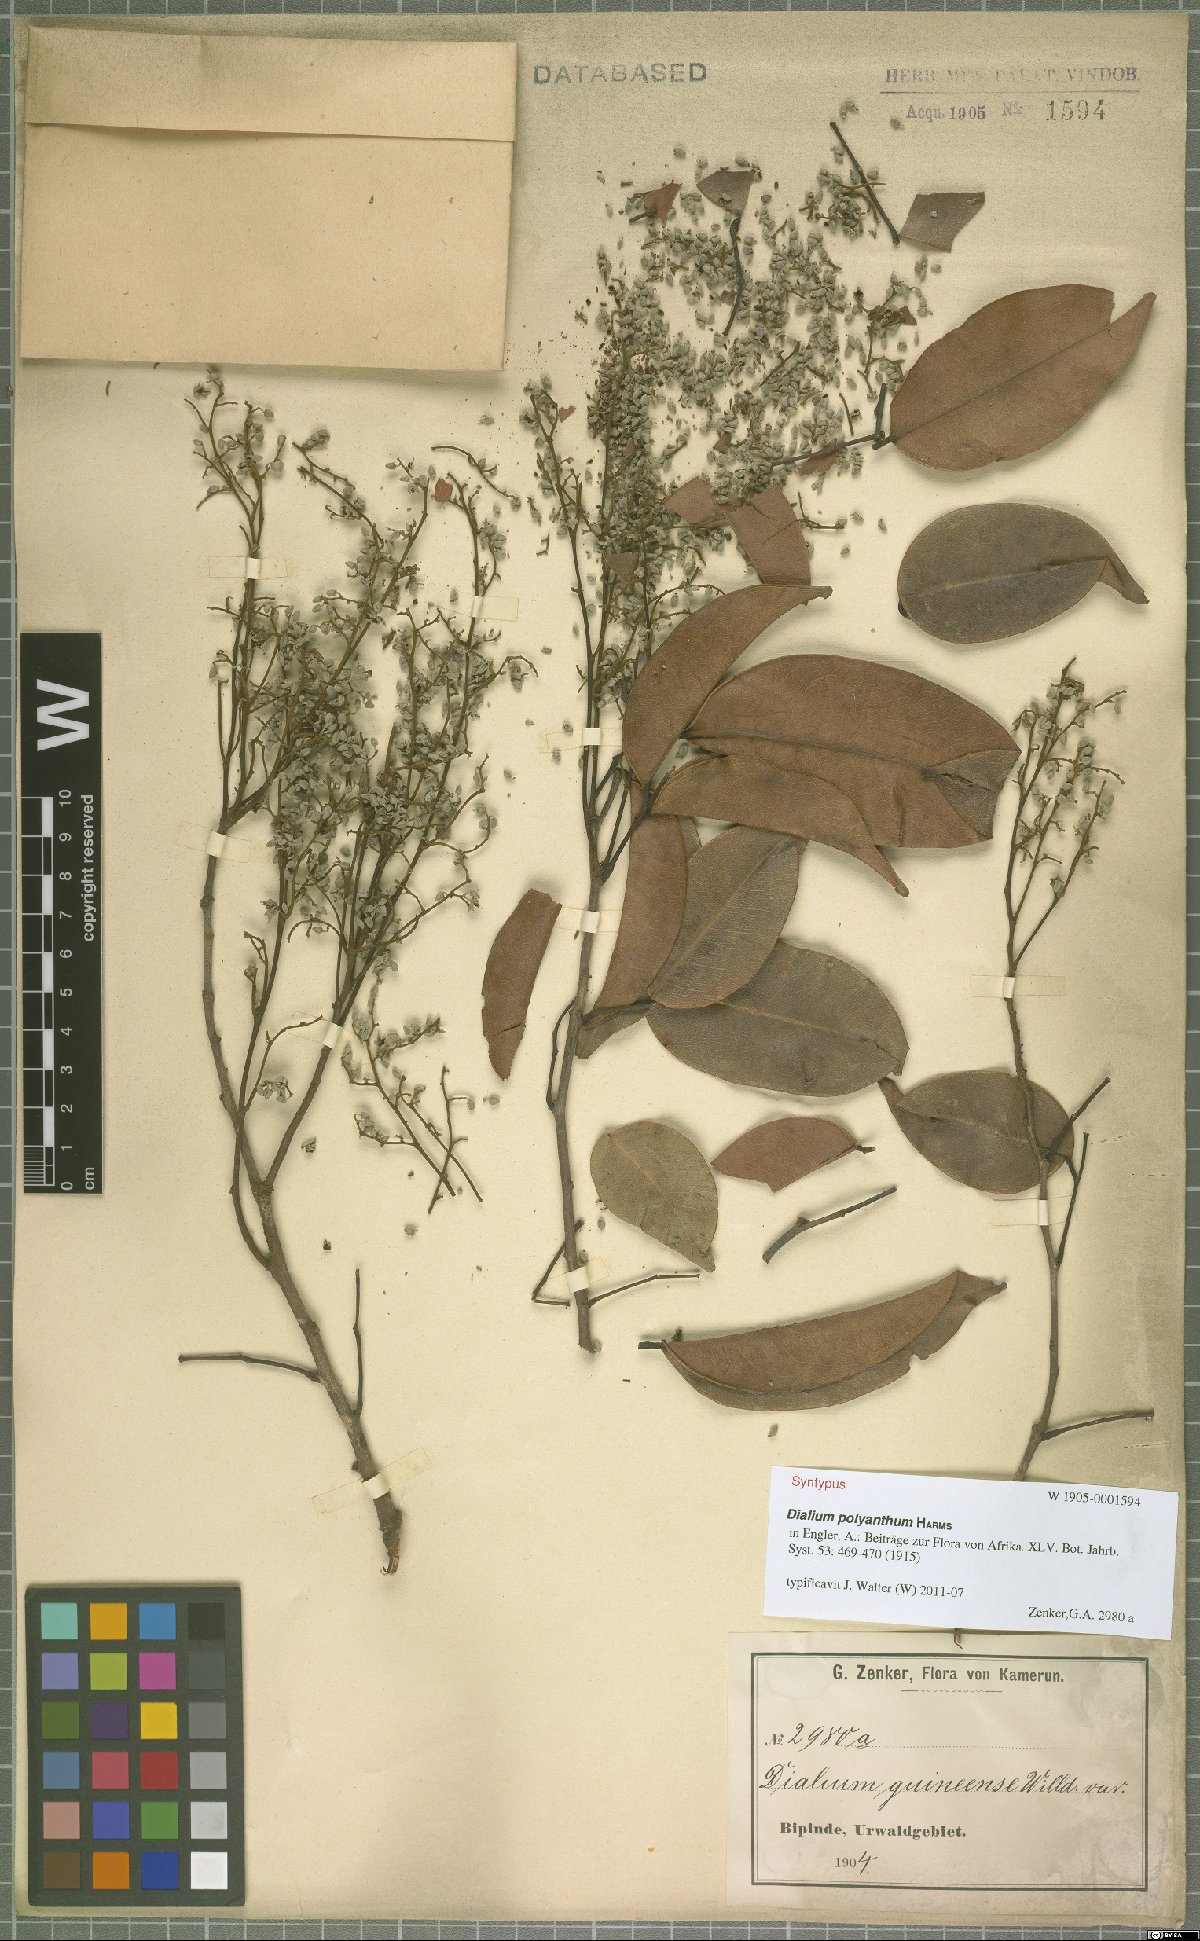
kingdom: Plantae
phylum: Tracheophyta
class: Magnoliopsida
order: Fabales
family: Fabaceae
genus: Dialium
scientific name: Dialium polyanthum
